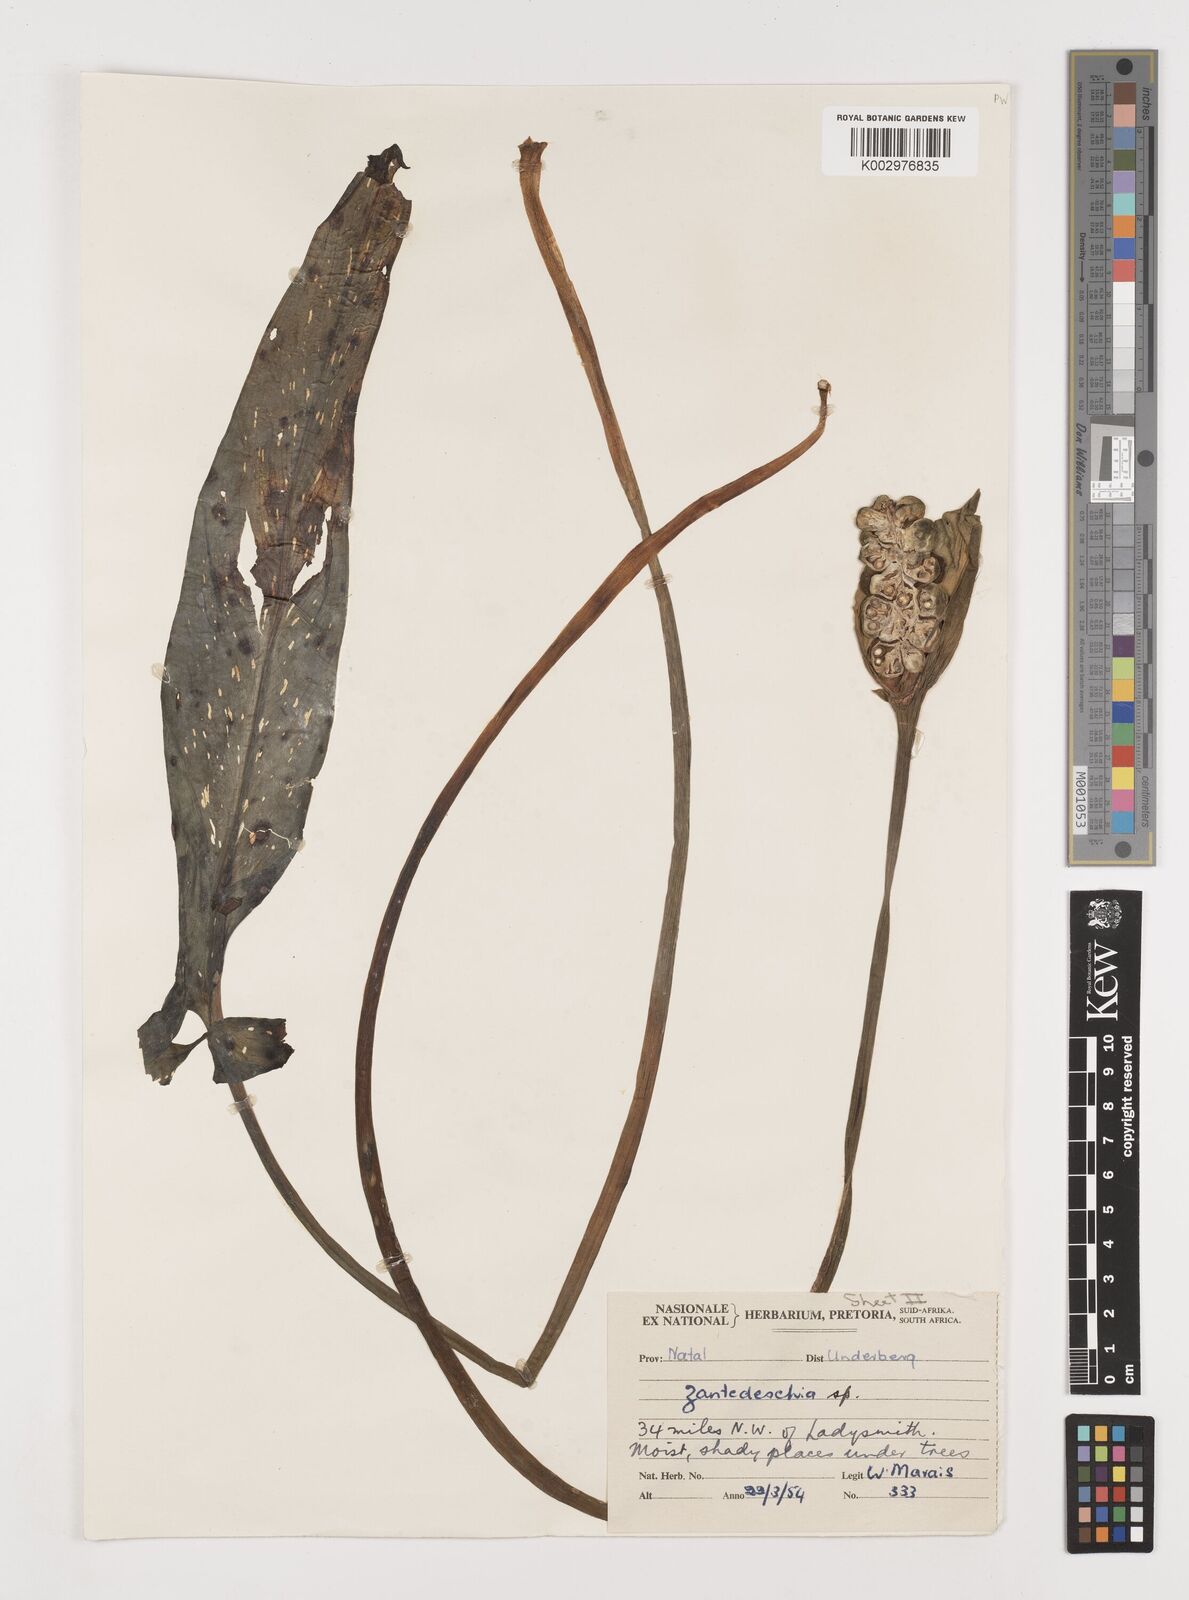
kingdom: Plantae
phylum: Tracheophyta
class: Liliopsida
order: Alismatales
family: Araceae
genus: Zantedeschia
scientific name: Zantedeschia albomaculata
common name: Spotted calla lily
